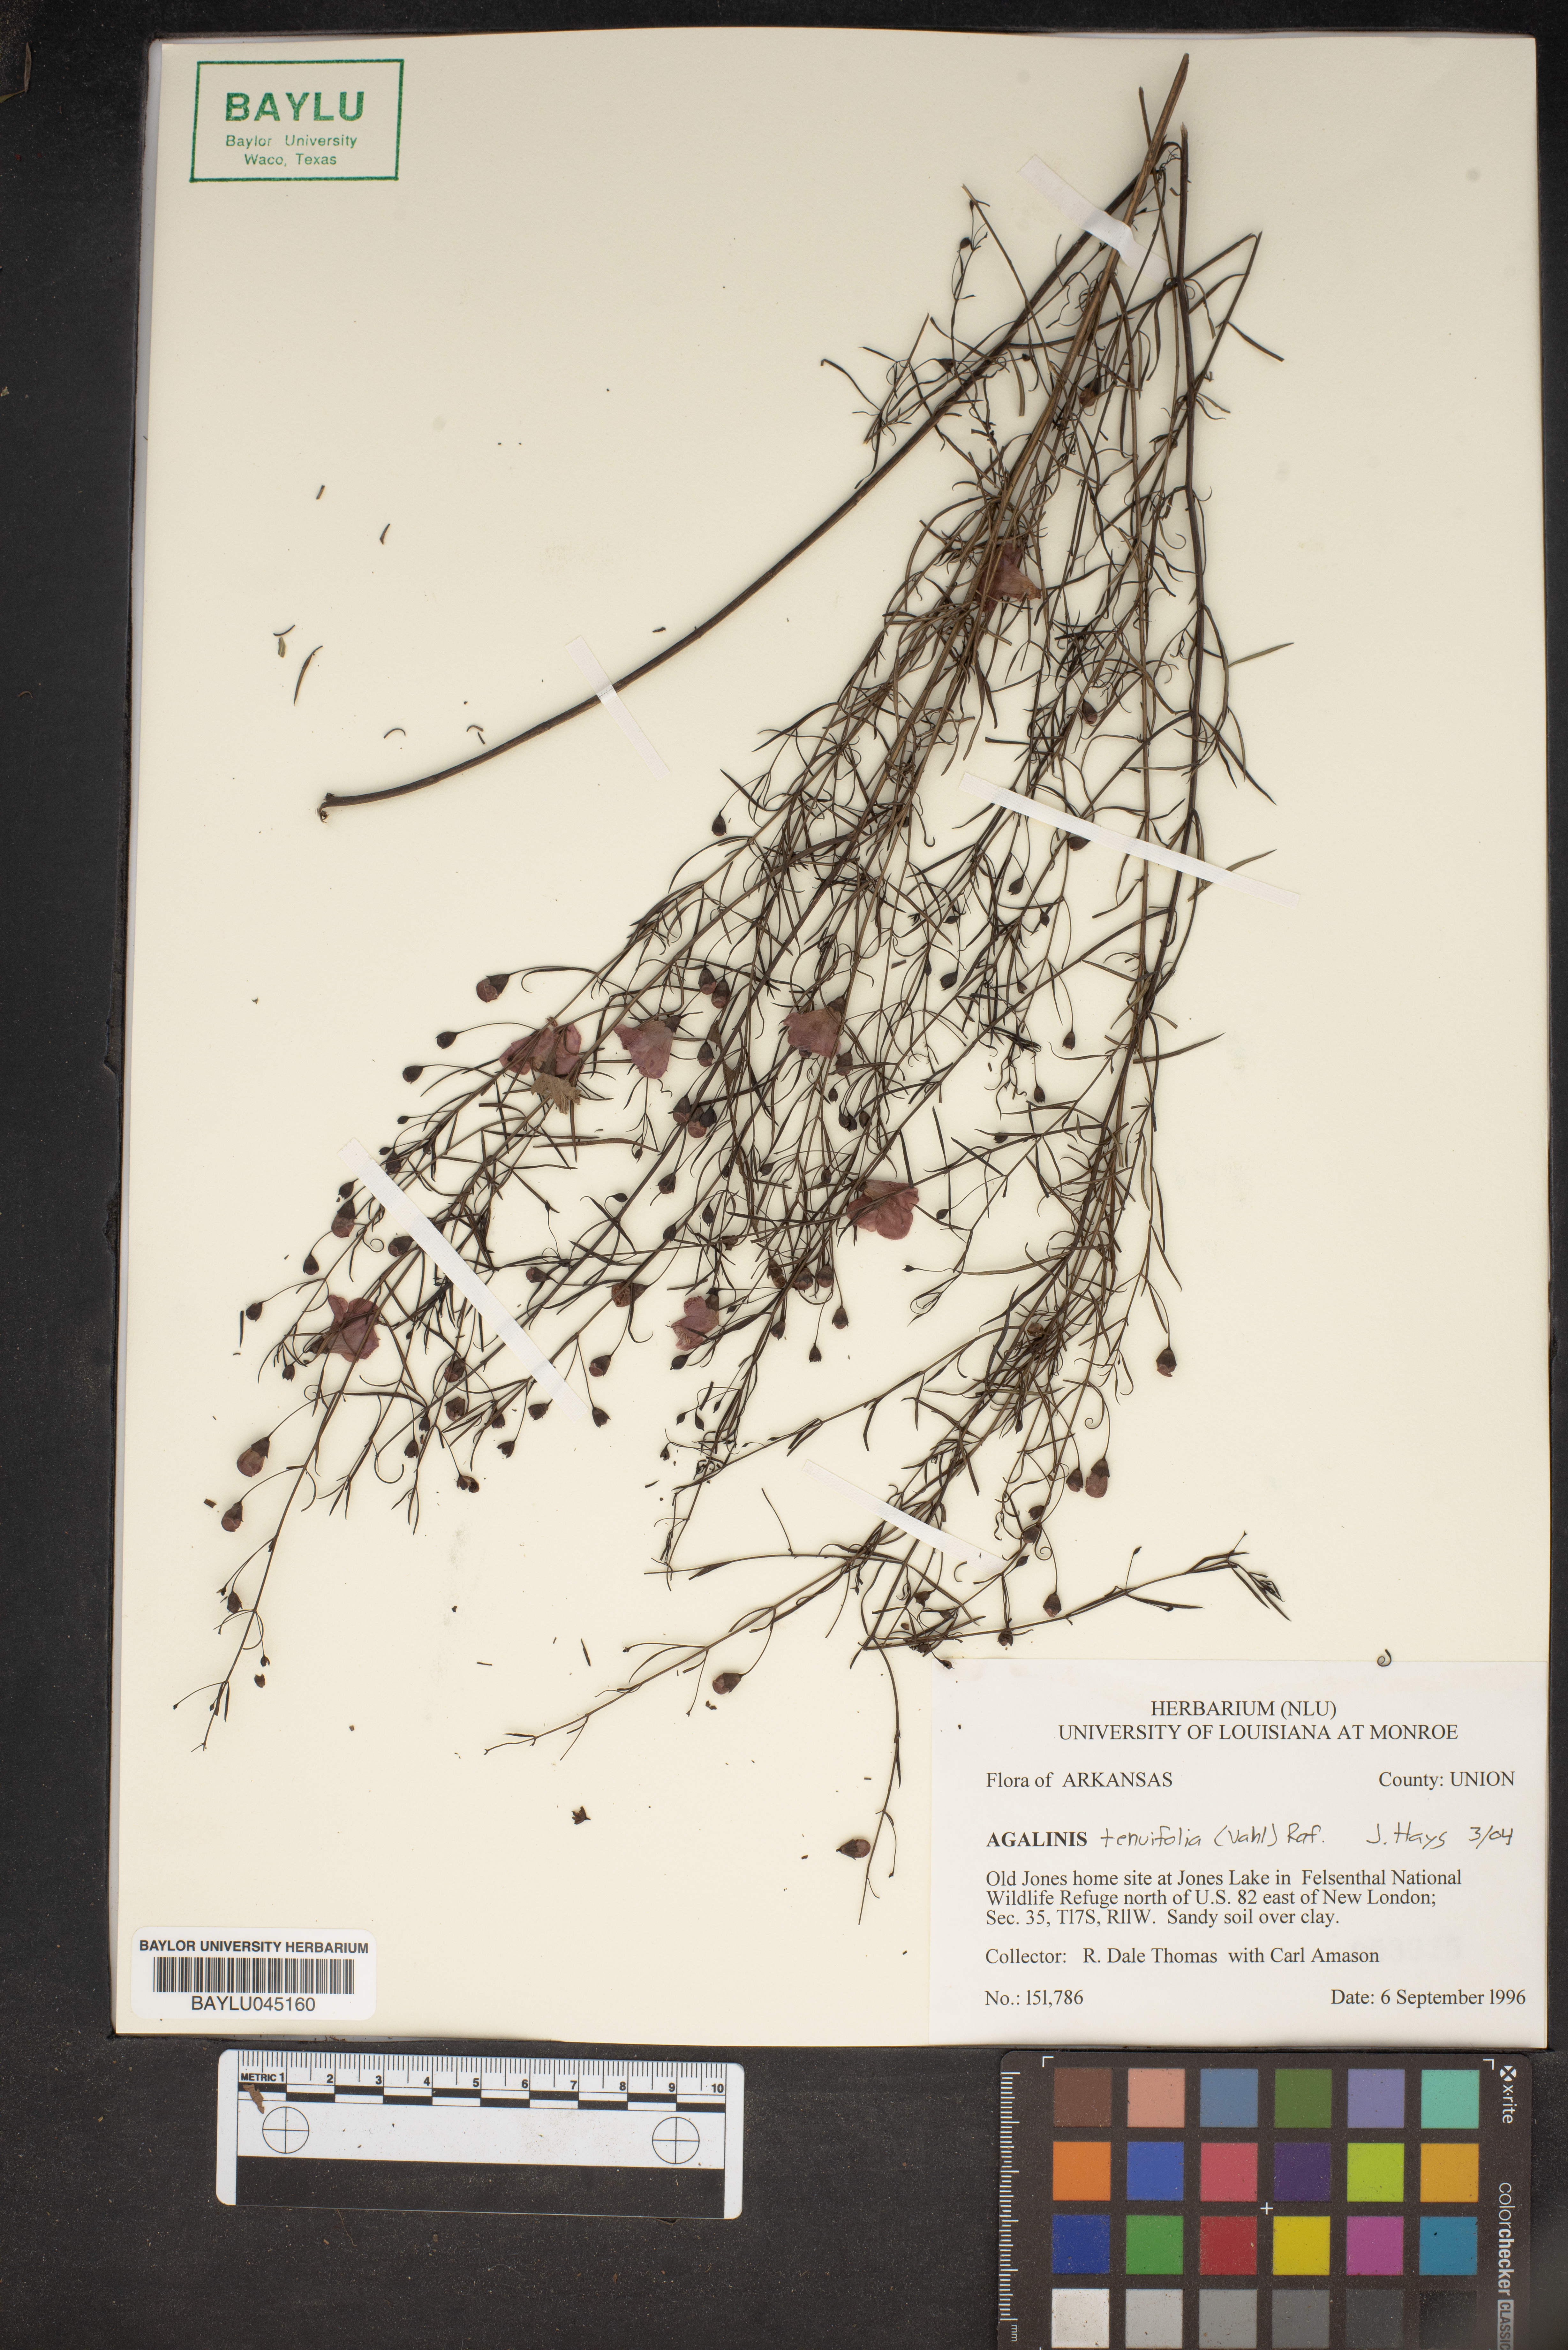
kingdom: Plantae
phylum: Tracheophyta
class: Magnoliopsida
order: Lamiales
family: Orobanchaceae
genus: Agalinis
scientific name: Agalinis tenuifolia
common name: Slender agalinis
